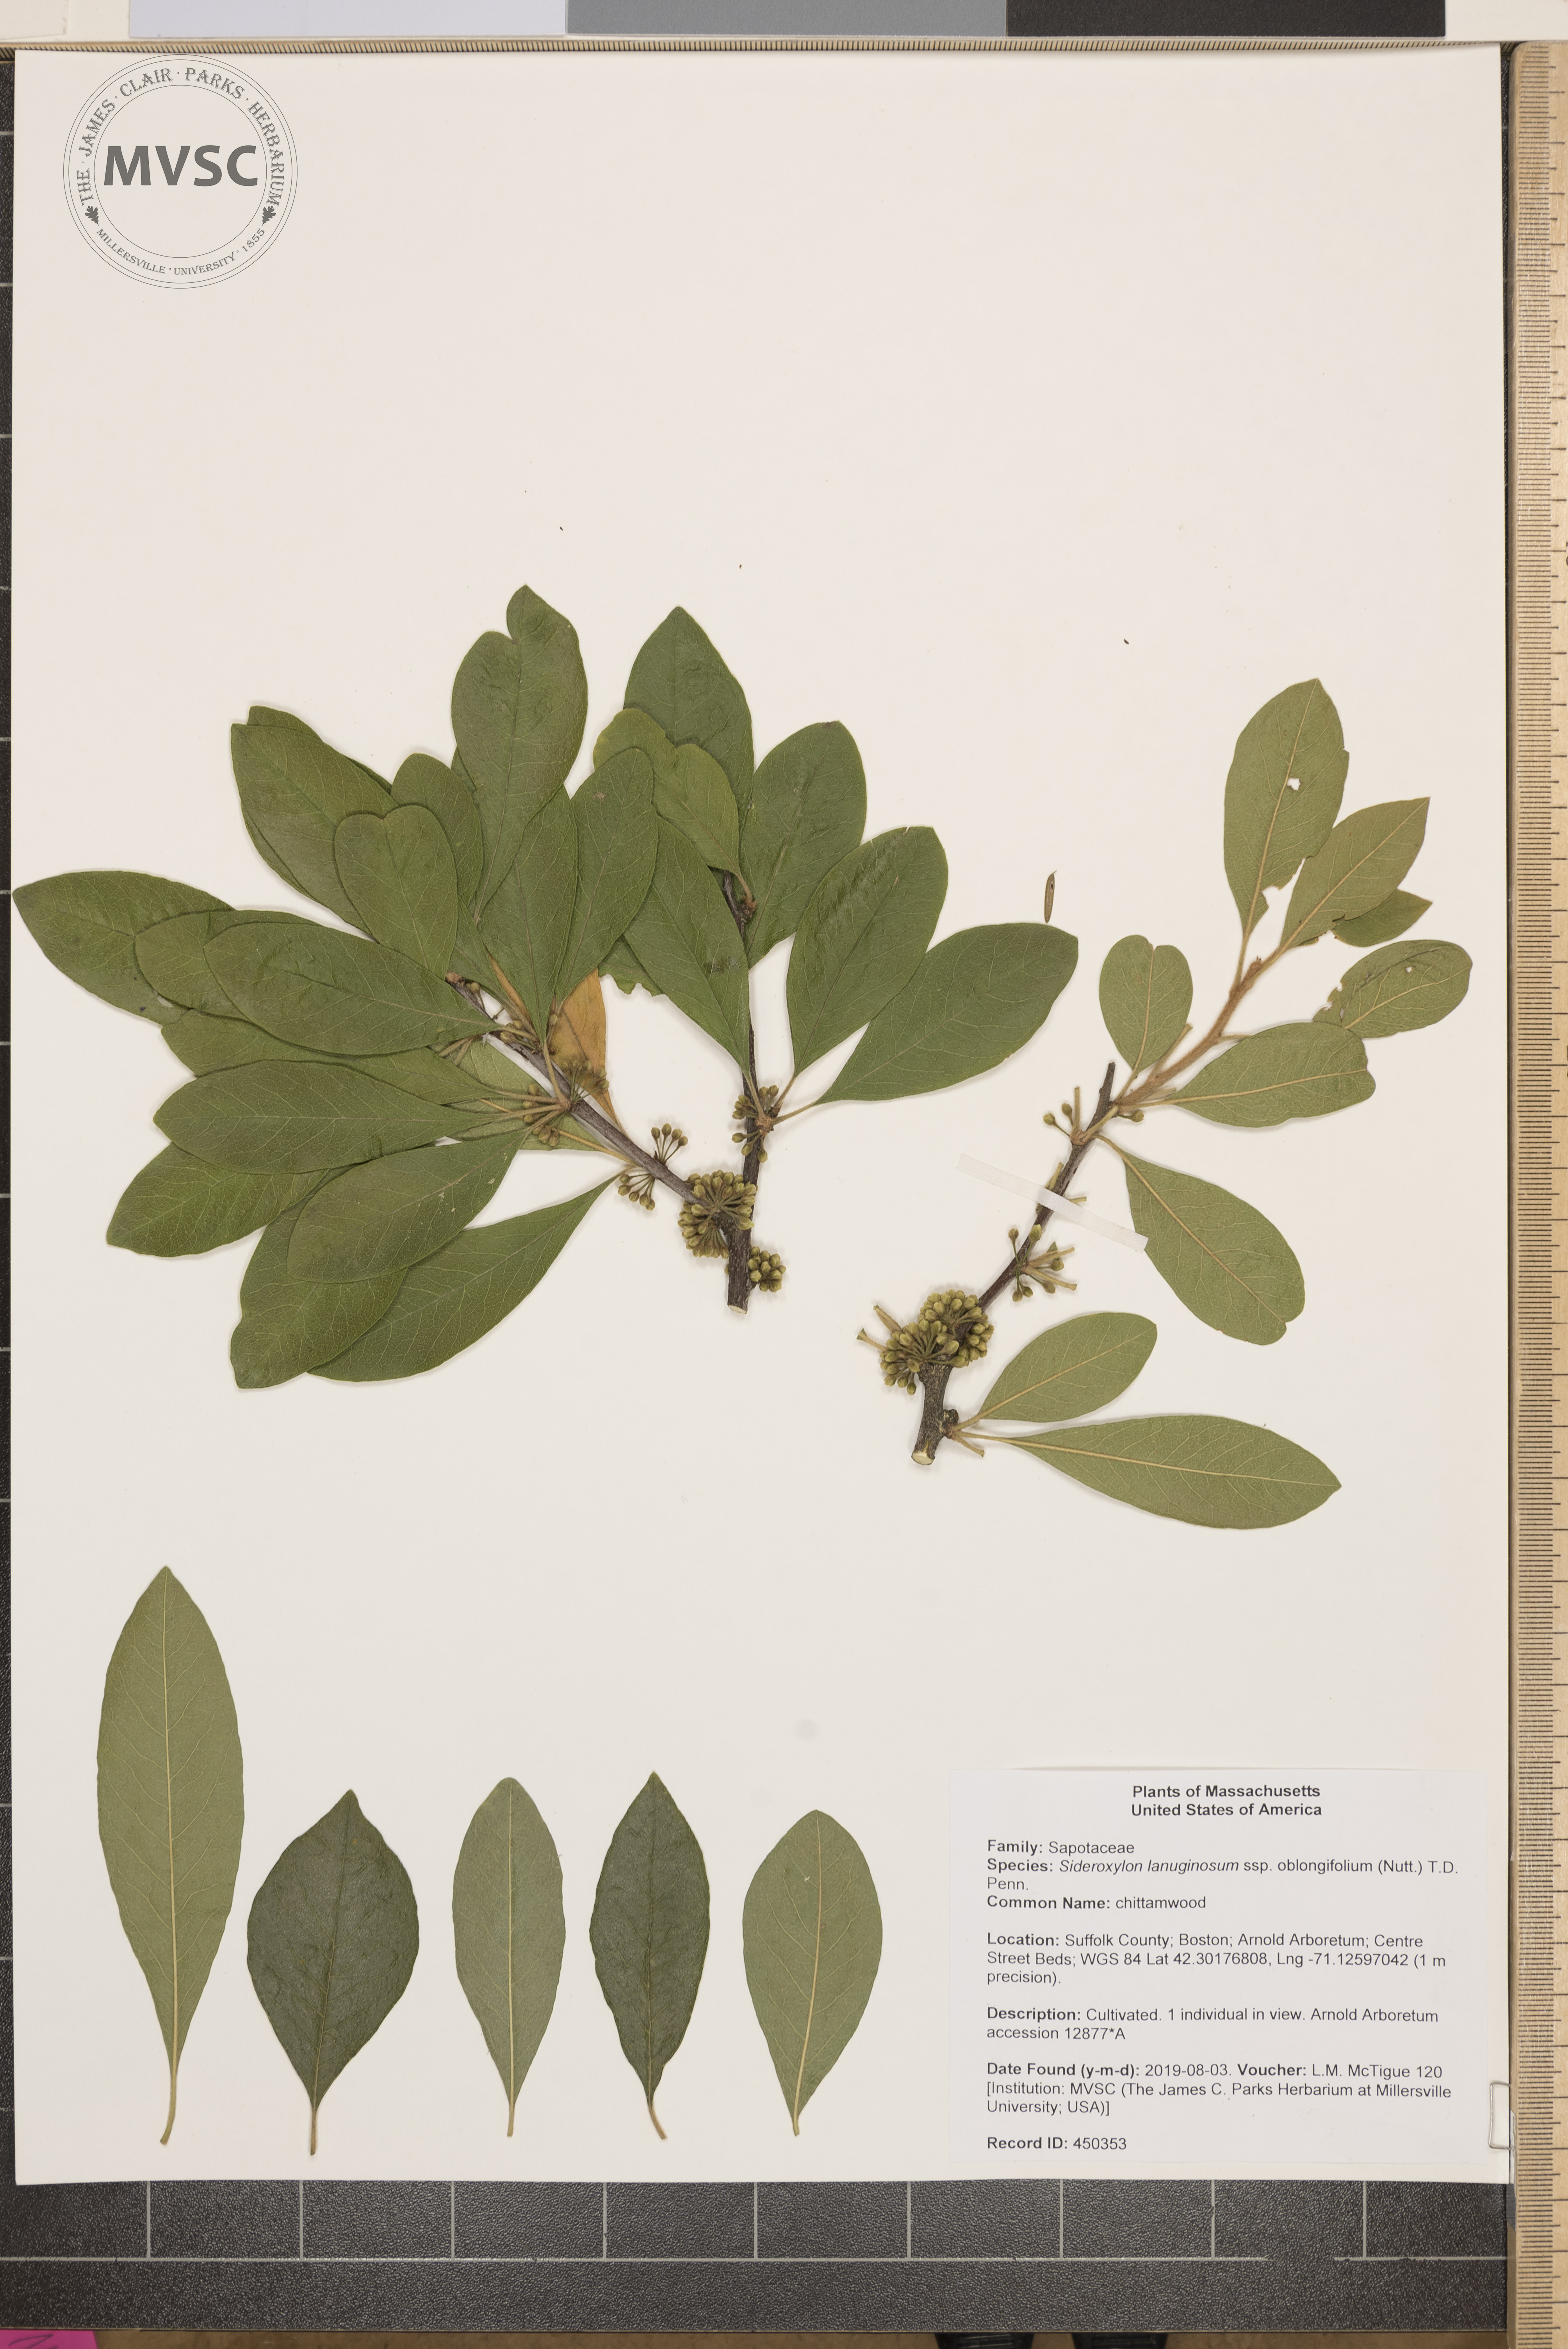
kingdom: Plantae
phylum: Tracheophyta
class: Magnoliopsida
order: Ericales
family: Sapotaceae
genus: Sideroxylon
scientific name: Sideroxylon lanuginosum
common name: chittamwood
